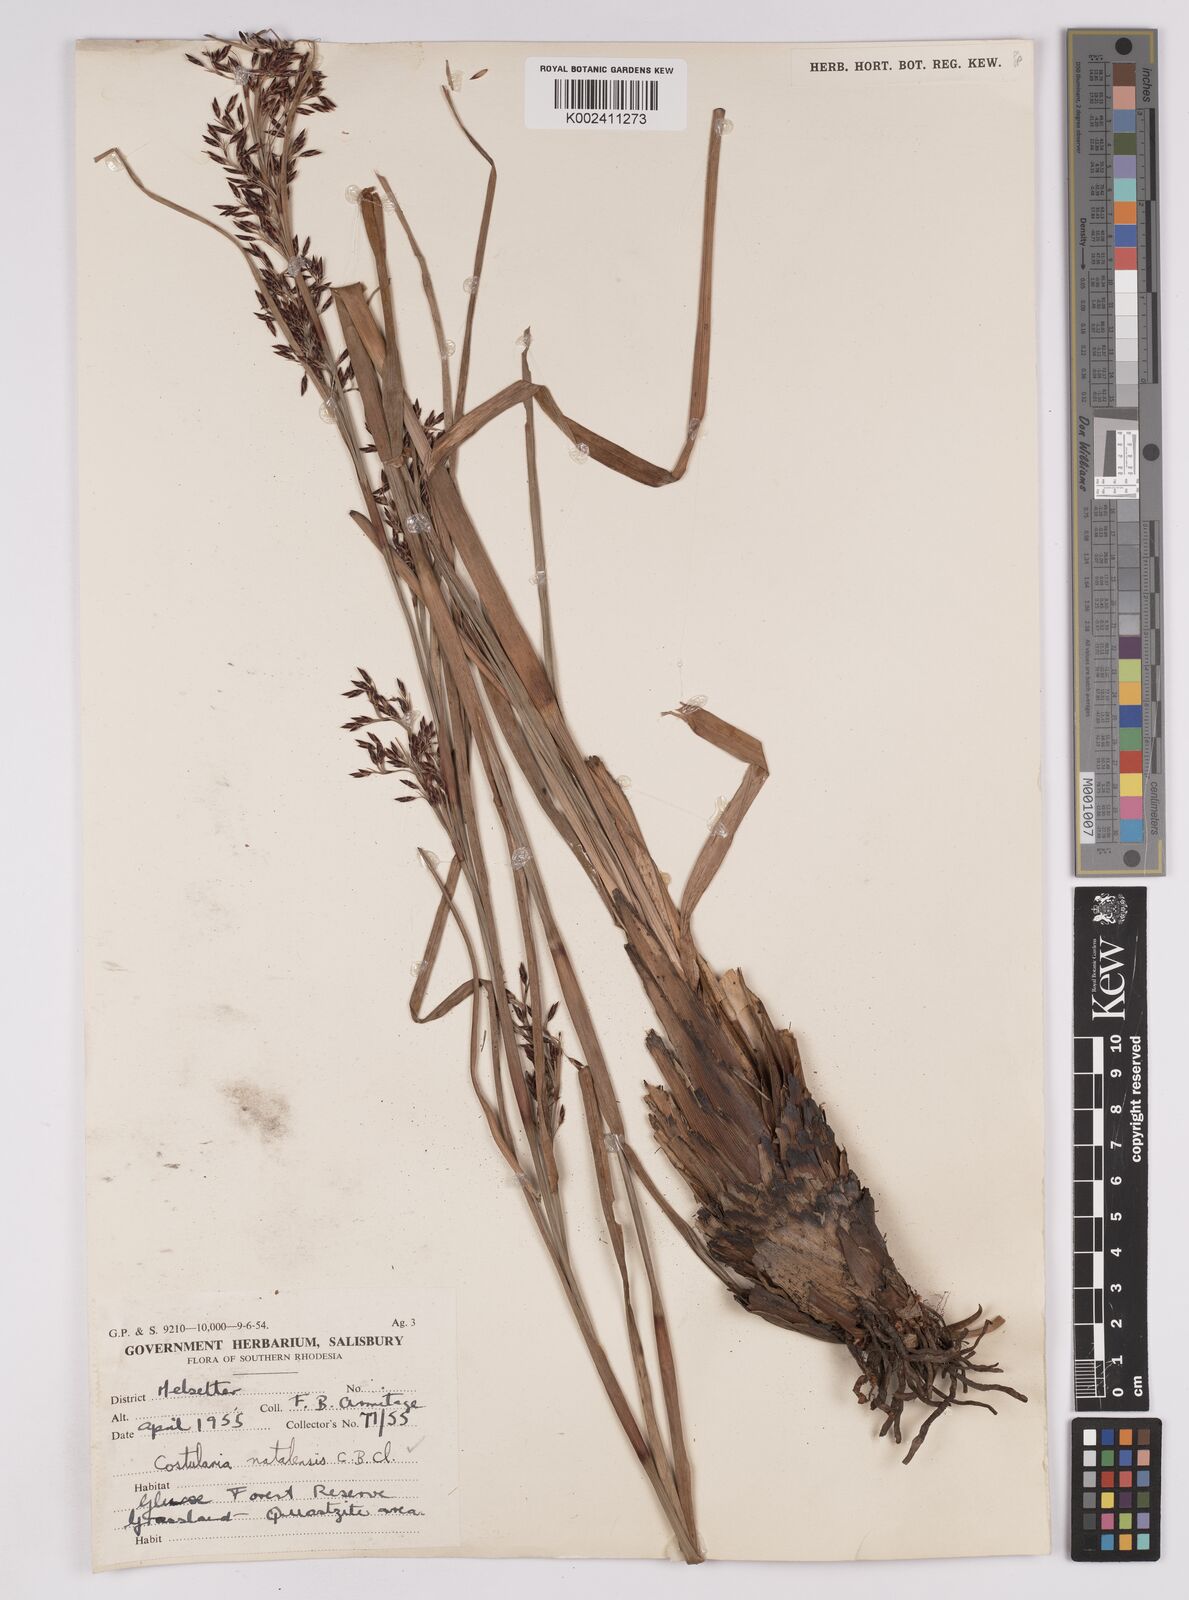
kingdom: Plantae
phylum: Tracheophyta
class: Liliopsida
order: Poales
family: Cyperaceae
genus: Costularia
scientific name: Costularia natalensis
